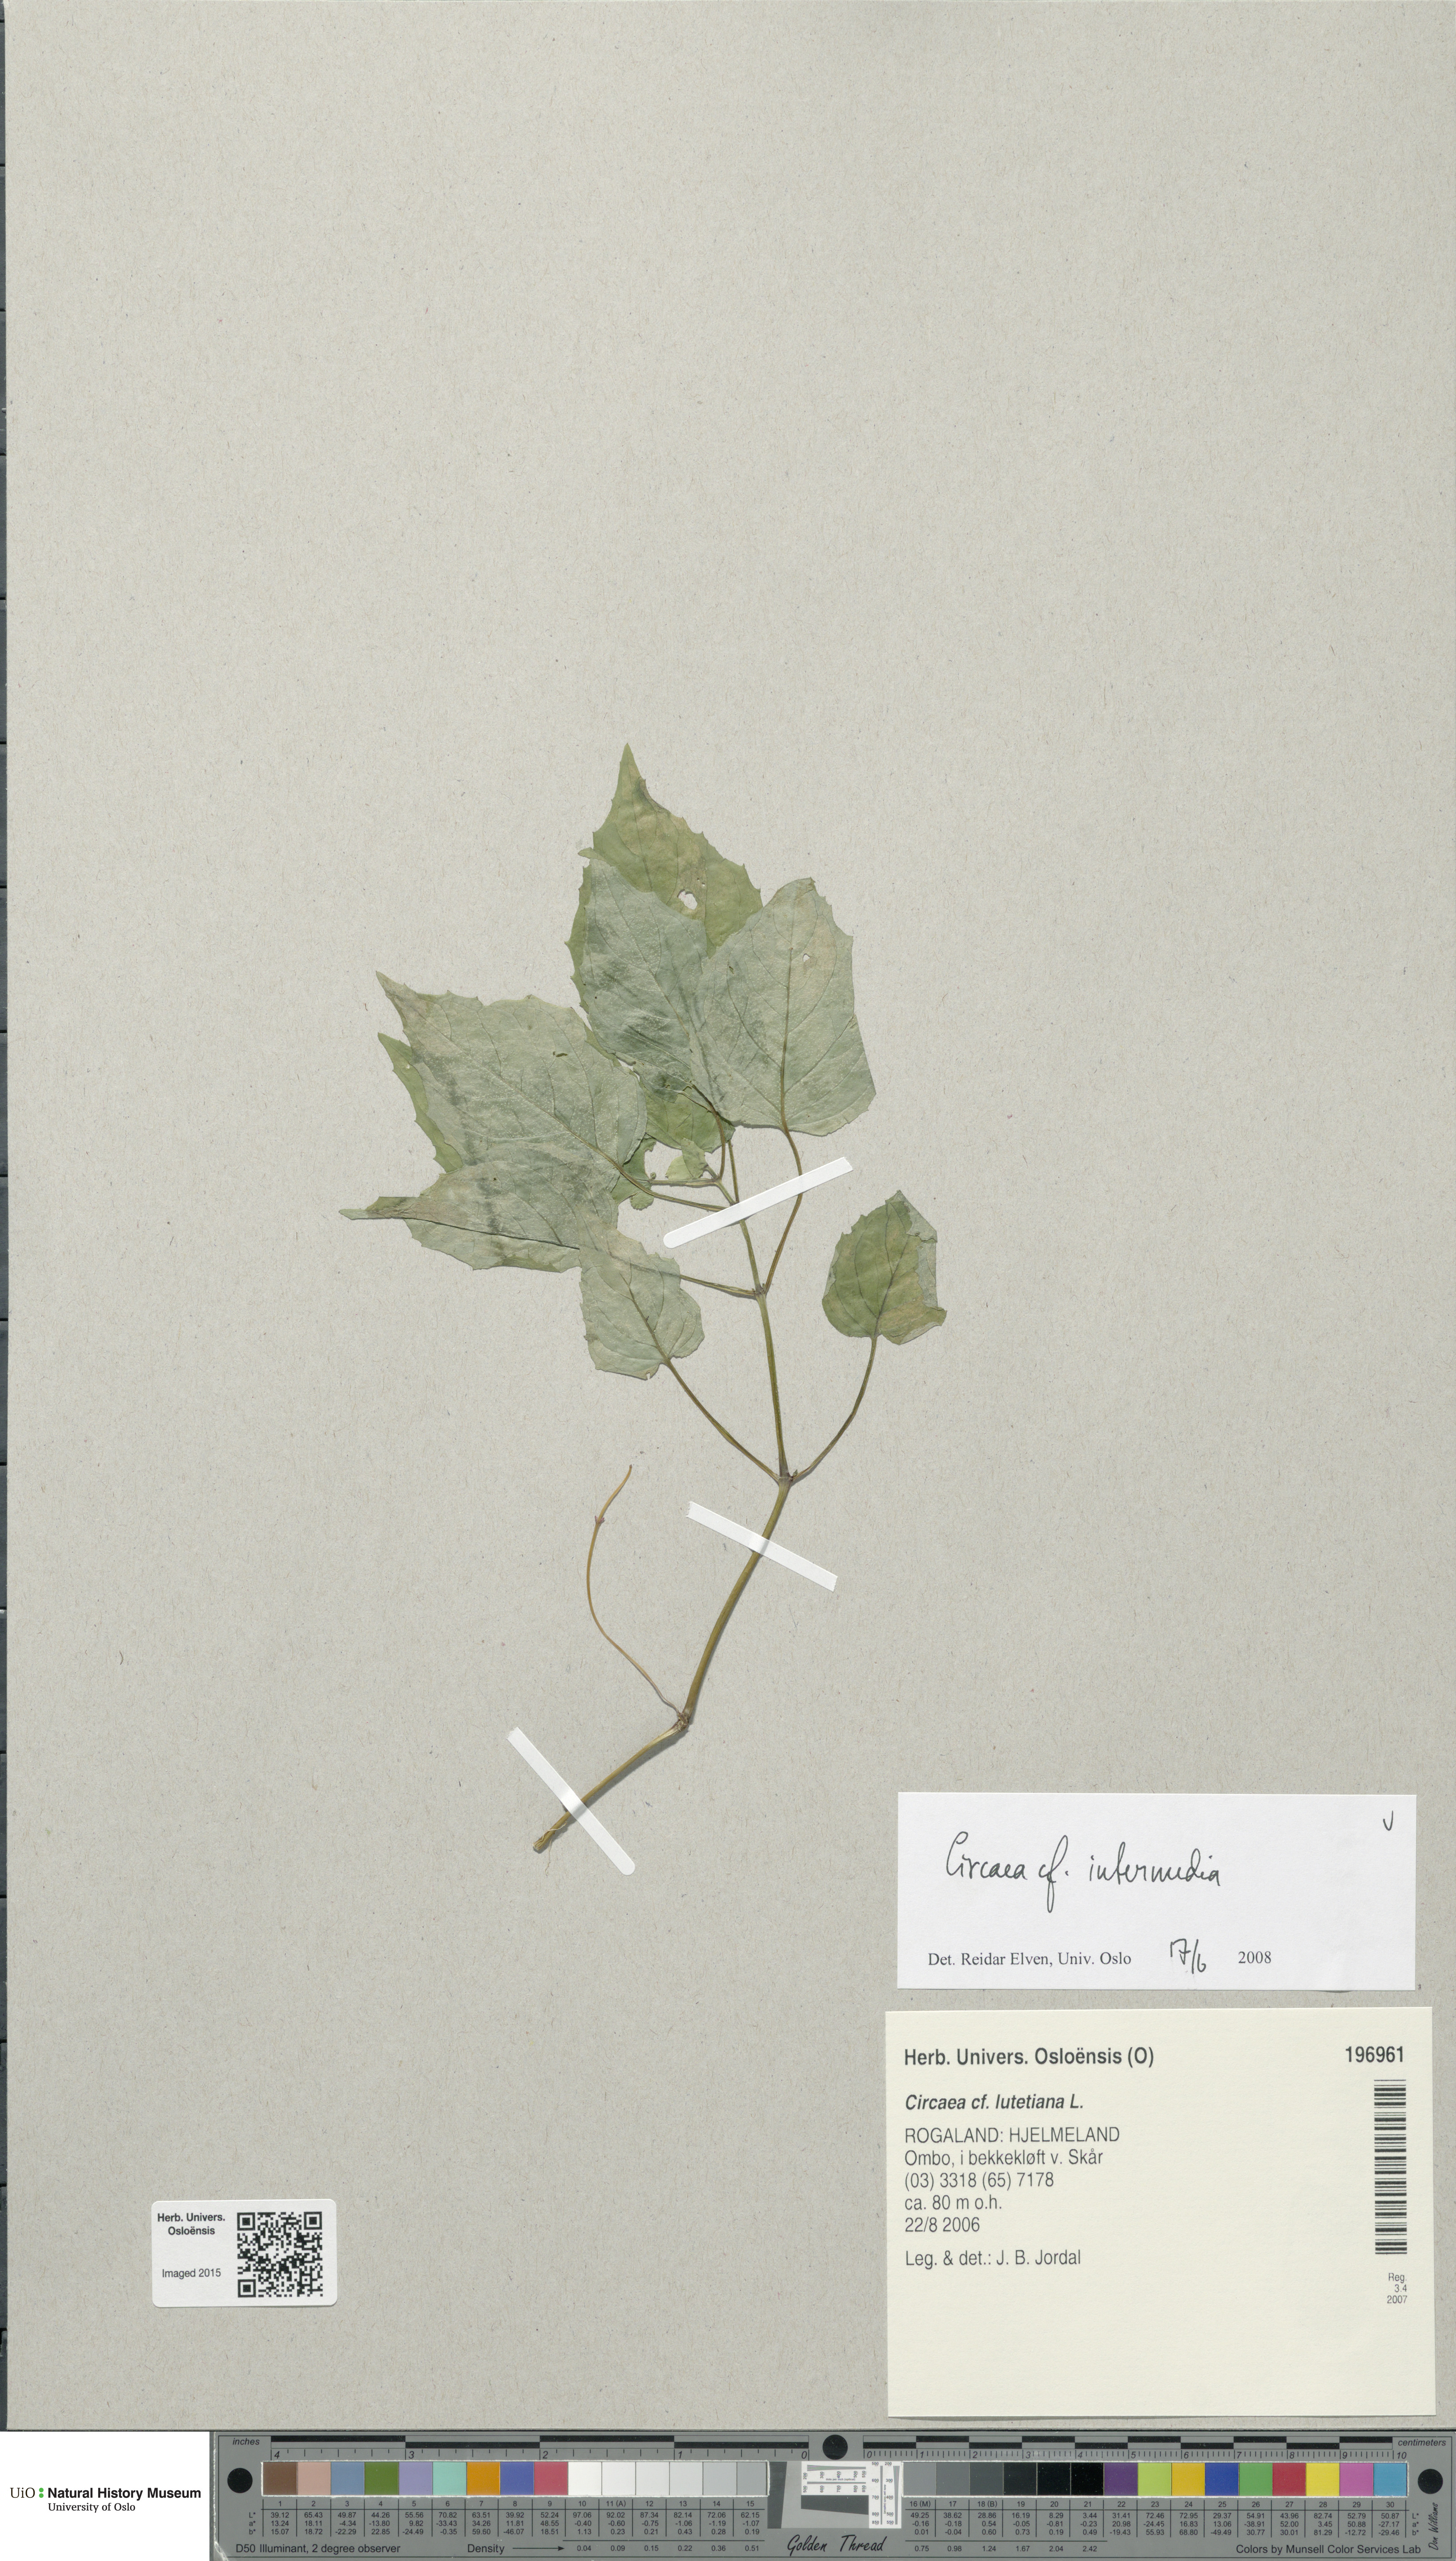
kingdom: Plantae
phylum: Tracheophyta
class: Magnoliopsida
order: Myrtales
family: Onagraceae
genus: Circaea
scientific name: Circaea intermedia
